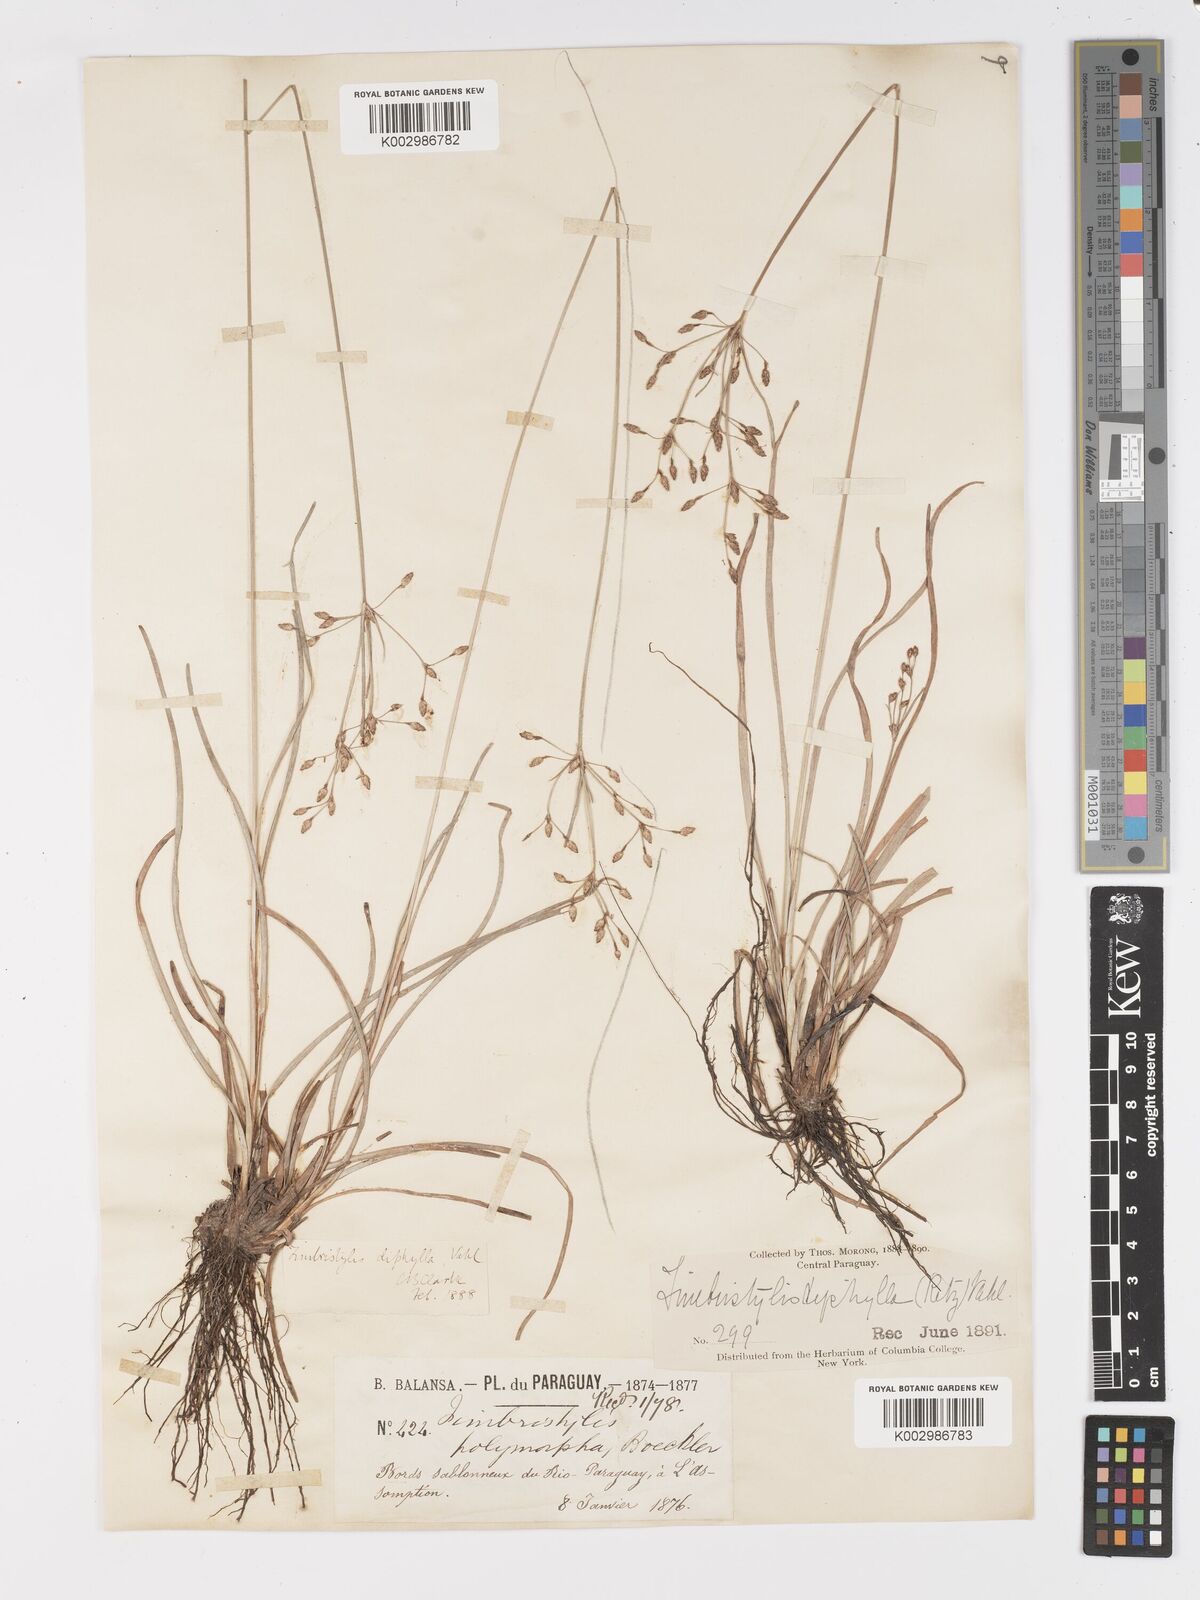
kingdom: Plantae
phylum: Tracheophyta
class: Liliopsida
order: Poales
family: Cyperaceae
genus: Fimbristylis
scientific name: Fimbristylis dichotoma
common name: Forked fimbry
